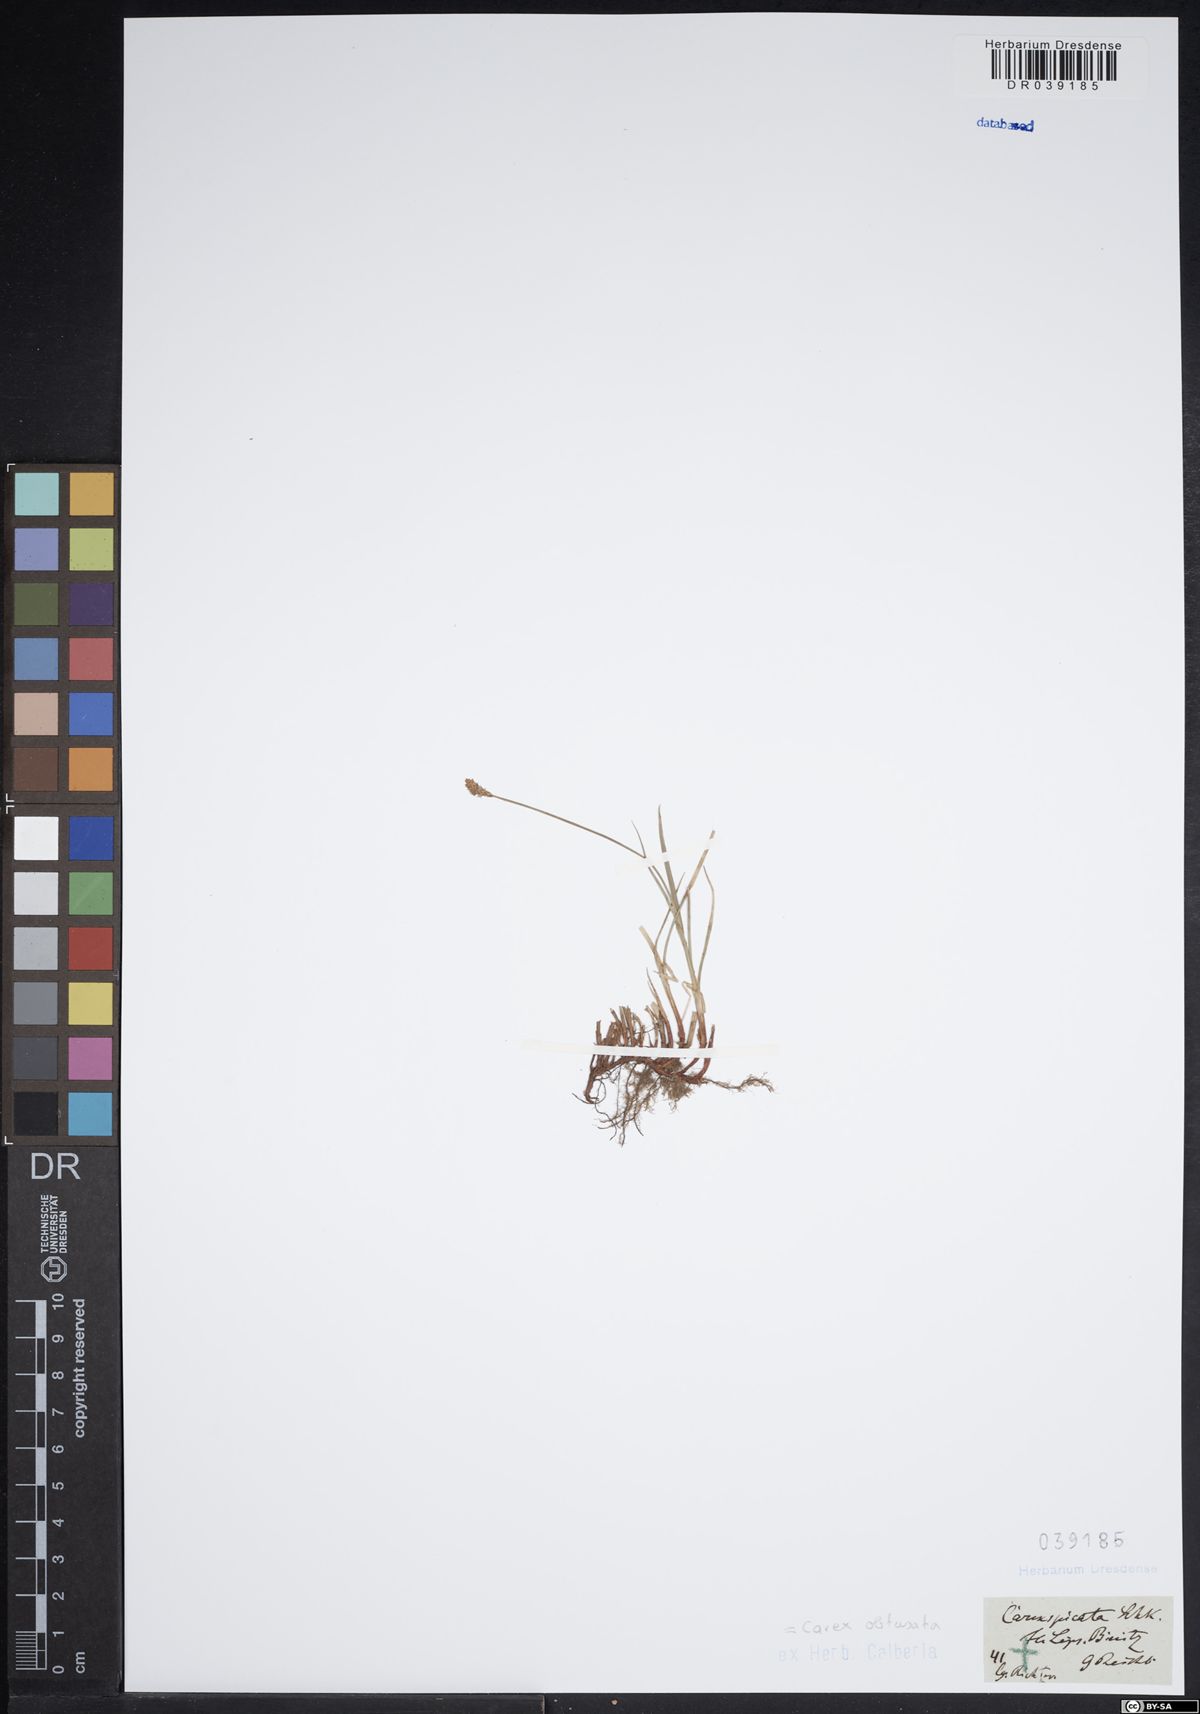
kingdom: Plantae
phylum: Tracheophyta
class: Liliopsida
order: Poales
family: Cyperaceae
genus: Carex
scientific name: Carex obtusata
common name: Blunt sedge
